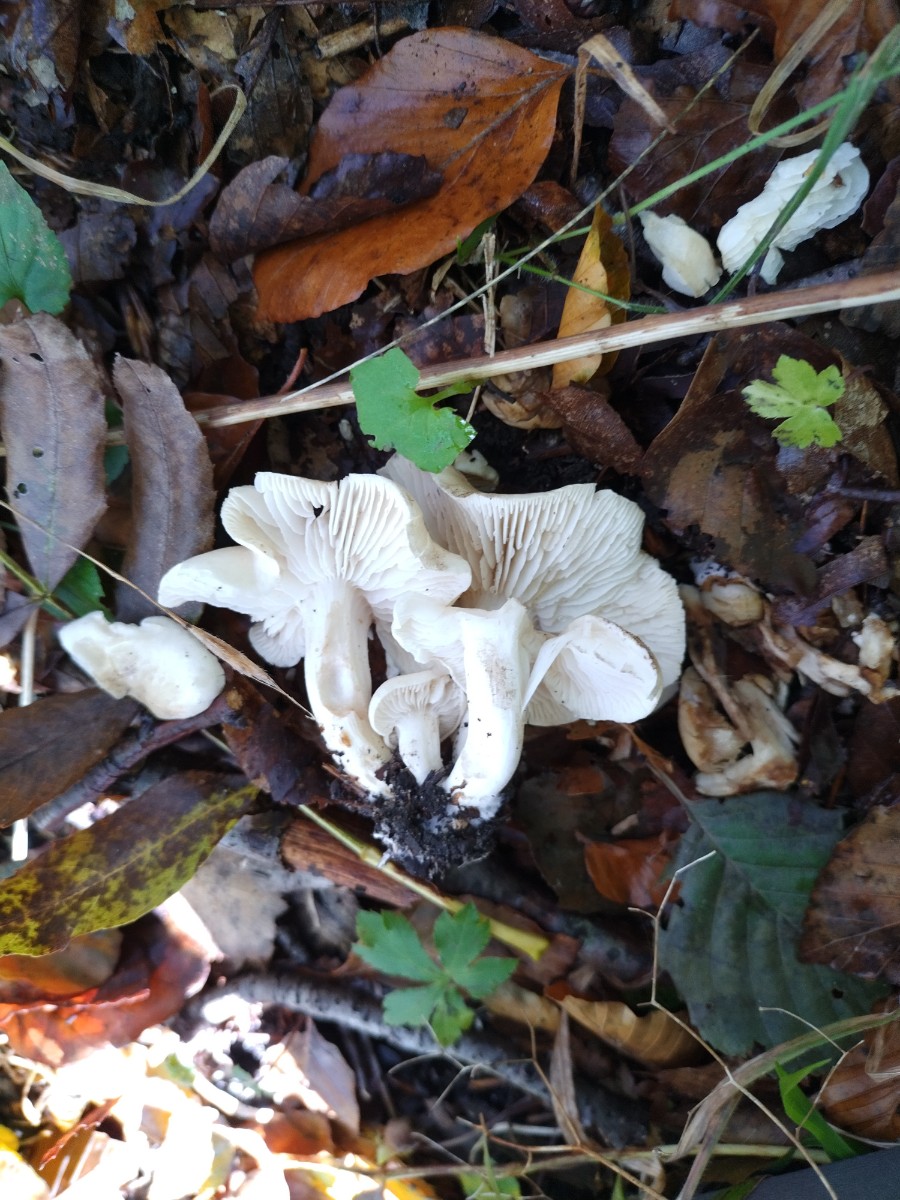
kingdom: Fungi
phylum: Basidiomycota
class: Agaricomycetes
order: Agaricales
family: Tricholomataceae
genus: Leucocybe
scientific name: Leucocybe connata
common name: knippe-tragthat
